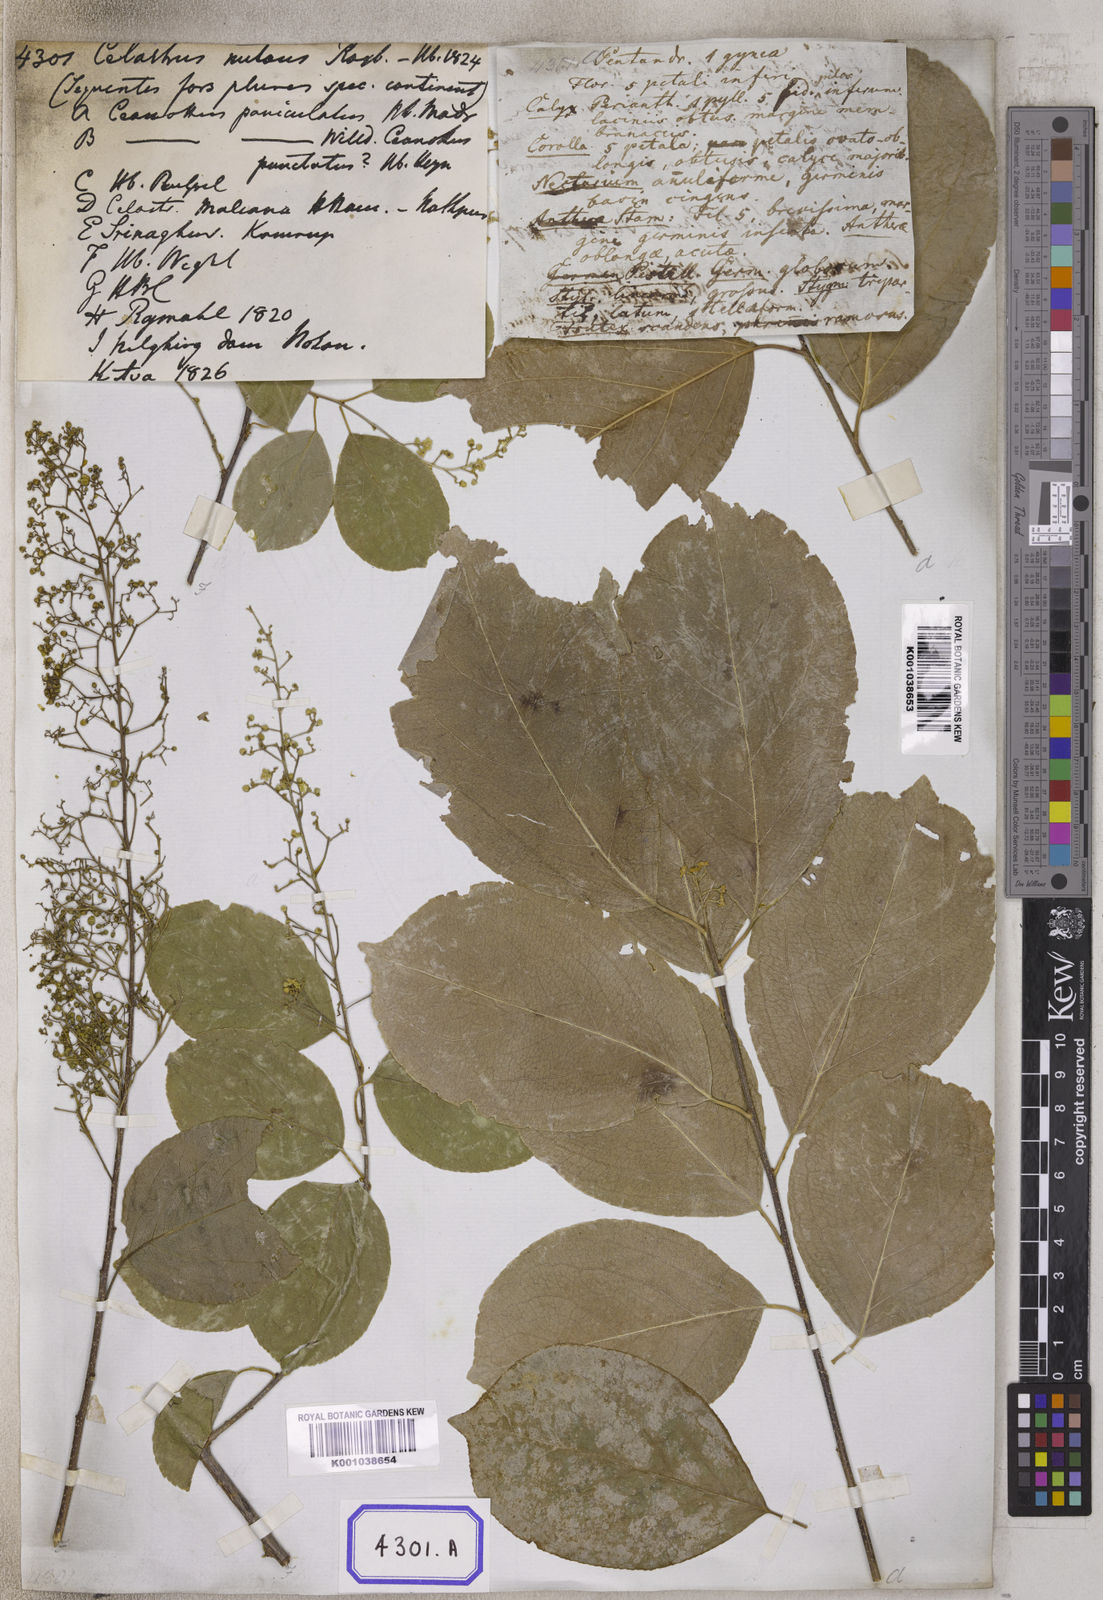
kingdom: Plantae
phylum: Tracheophyta
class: Magnoliopsida
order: Celastrales
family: Celastraceae
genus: Celastrus
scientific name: Celastrus paniculatus
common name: Oriental bittersweet; staff vine
